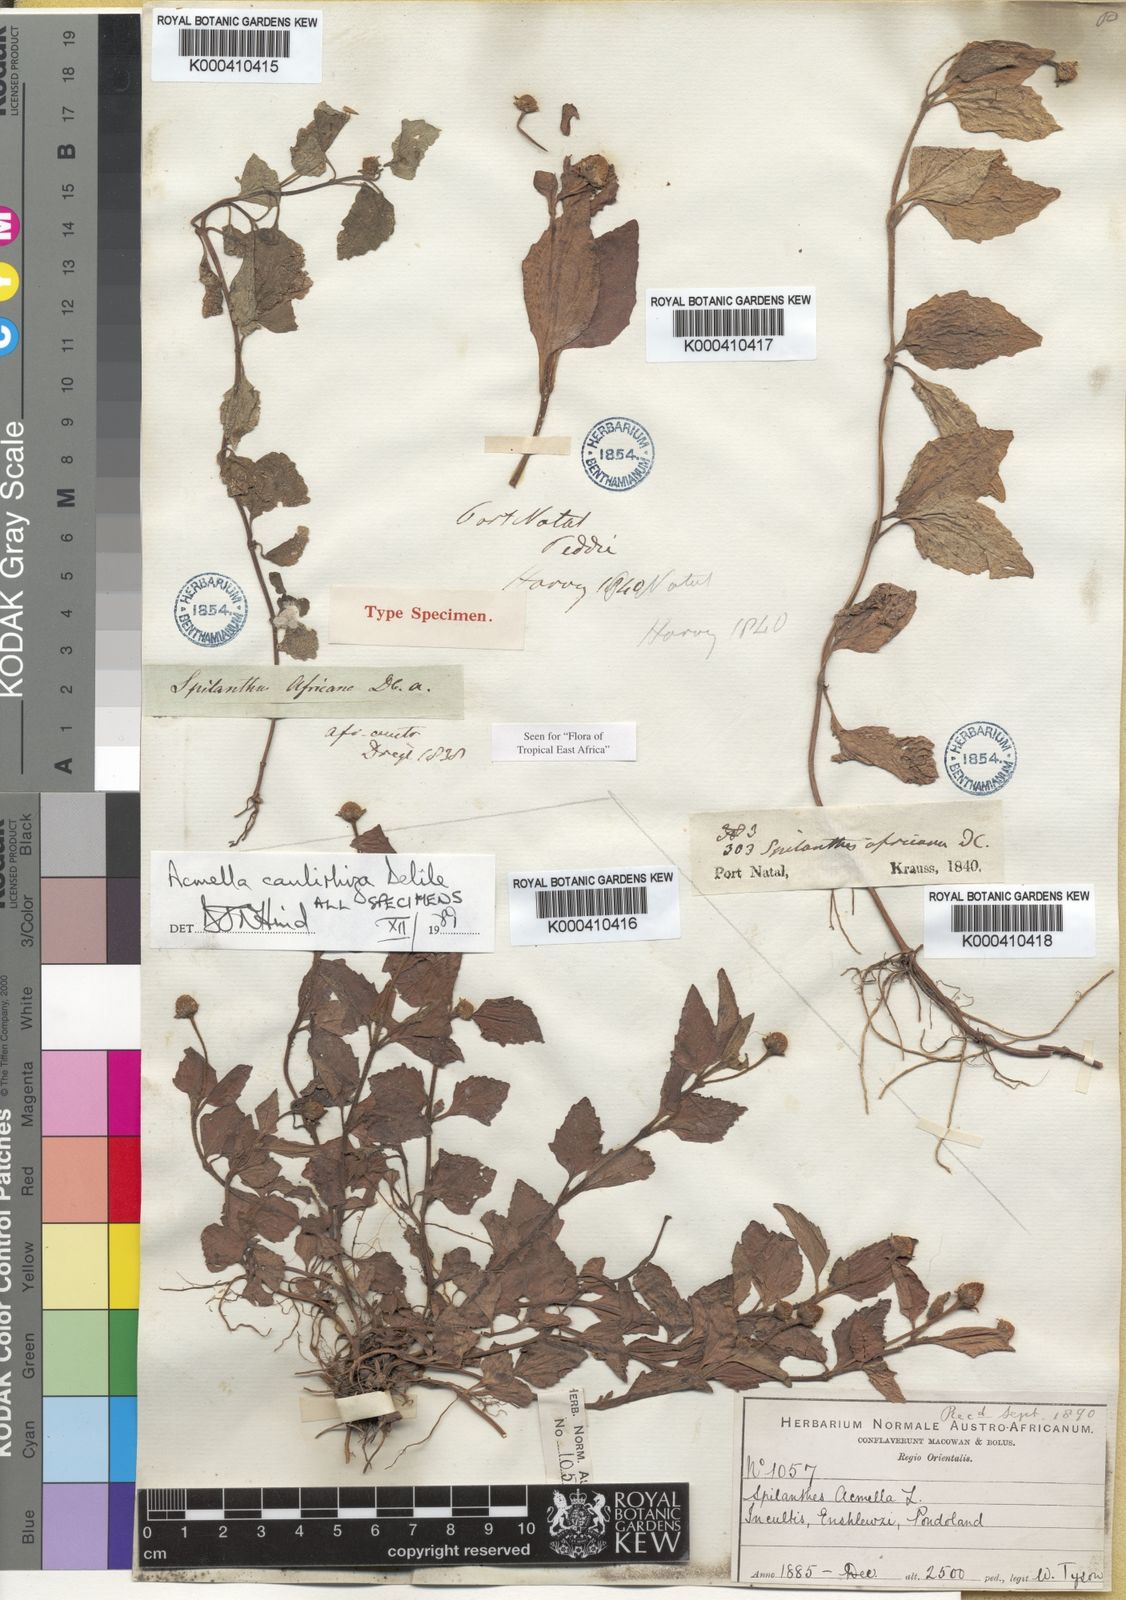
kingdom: Plantae
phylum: Tracheophyta
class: Magnoliopsida
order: Asterales
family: Asteraceae
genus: Acmella
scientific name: Acmella
